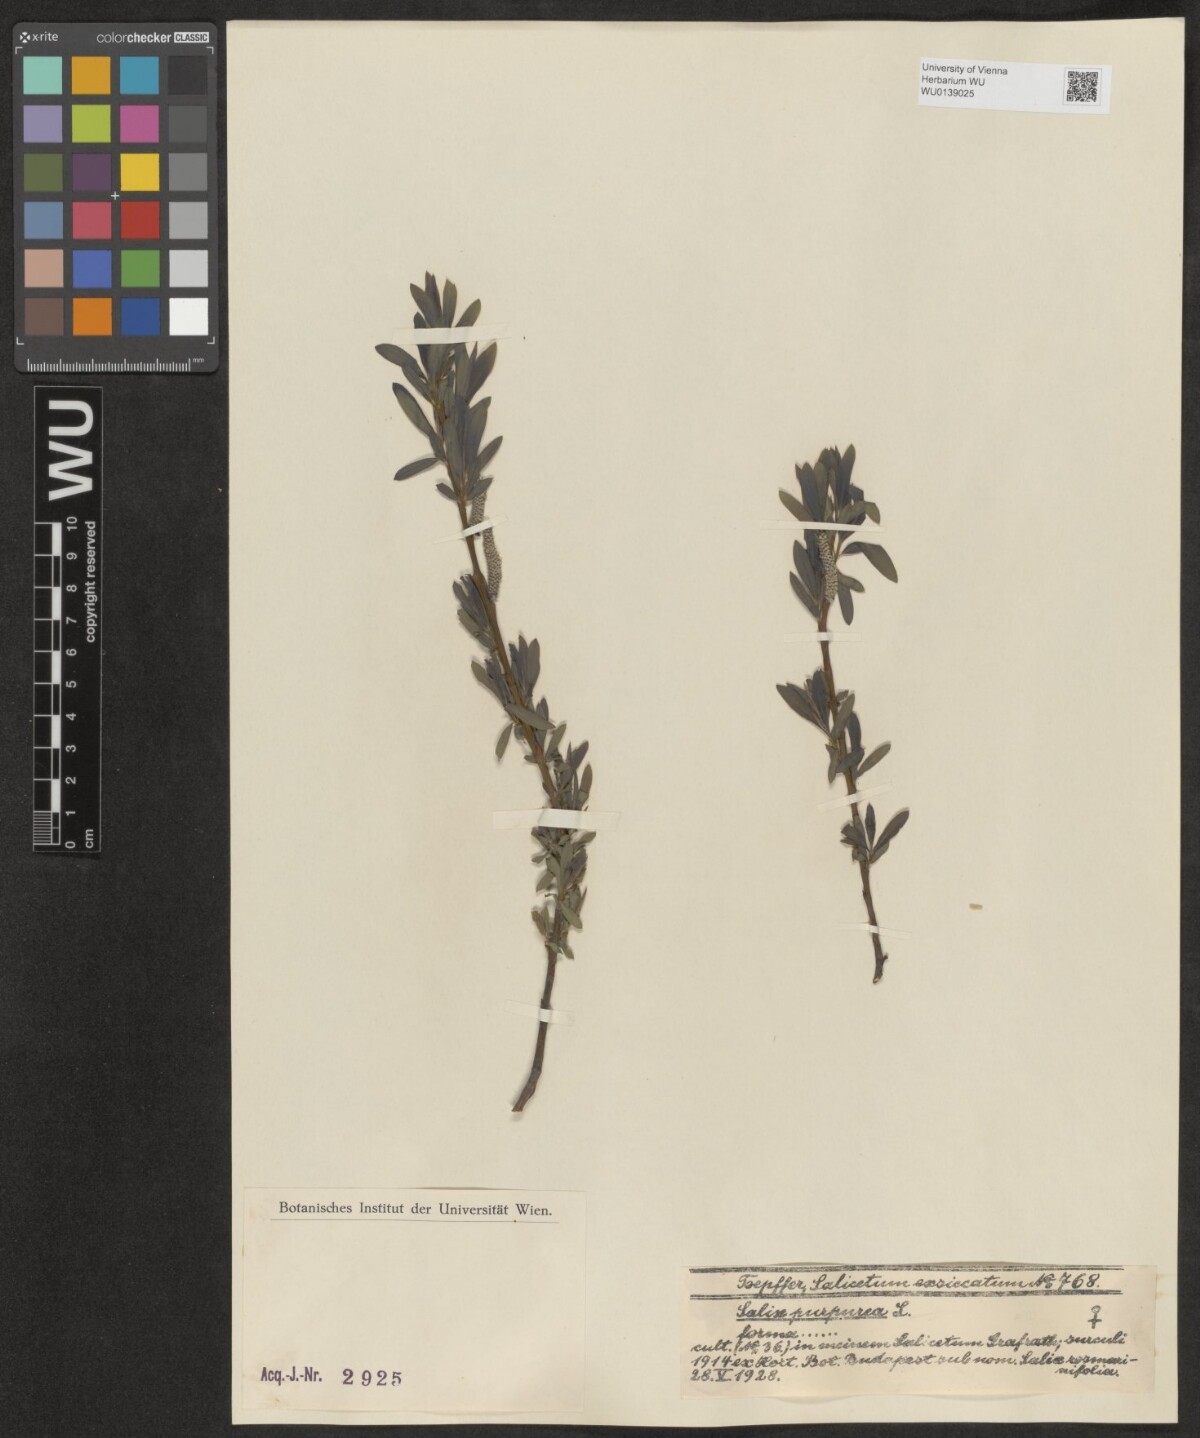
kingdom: Plantae
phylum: Tracheophyta
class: Magnoliopsida
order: Malpighiales
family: Salicaceae
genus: Salix
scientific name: Salix purpurea
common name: Purple willow
